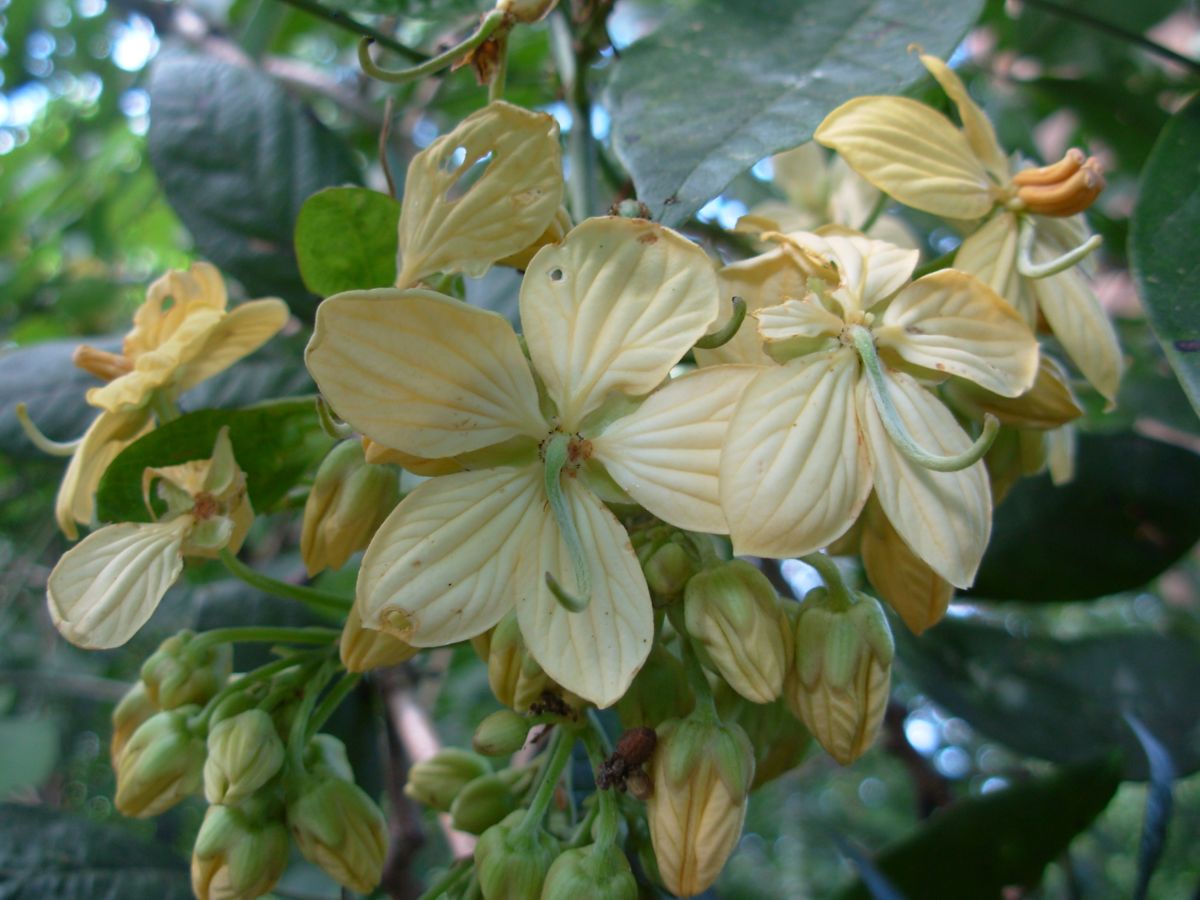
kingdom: Plantae
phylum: Tracheophyta
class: Magnoliopsida
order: Fabales
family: Fabaceae
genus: Senna
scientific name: Senna hayesiana
